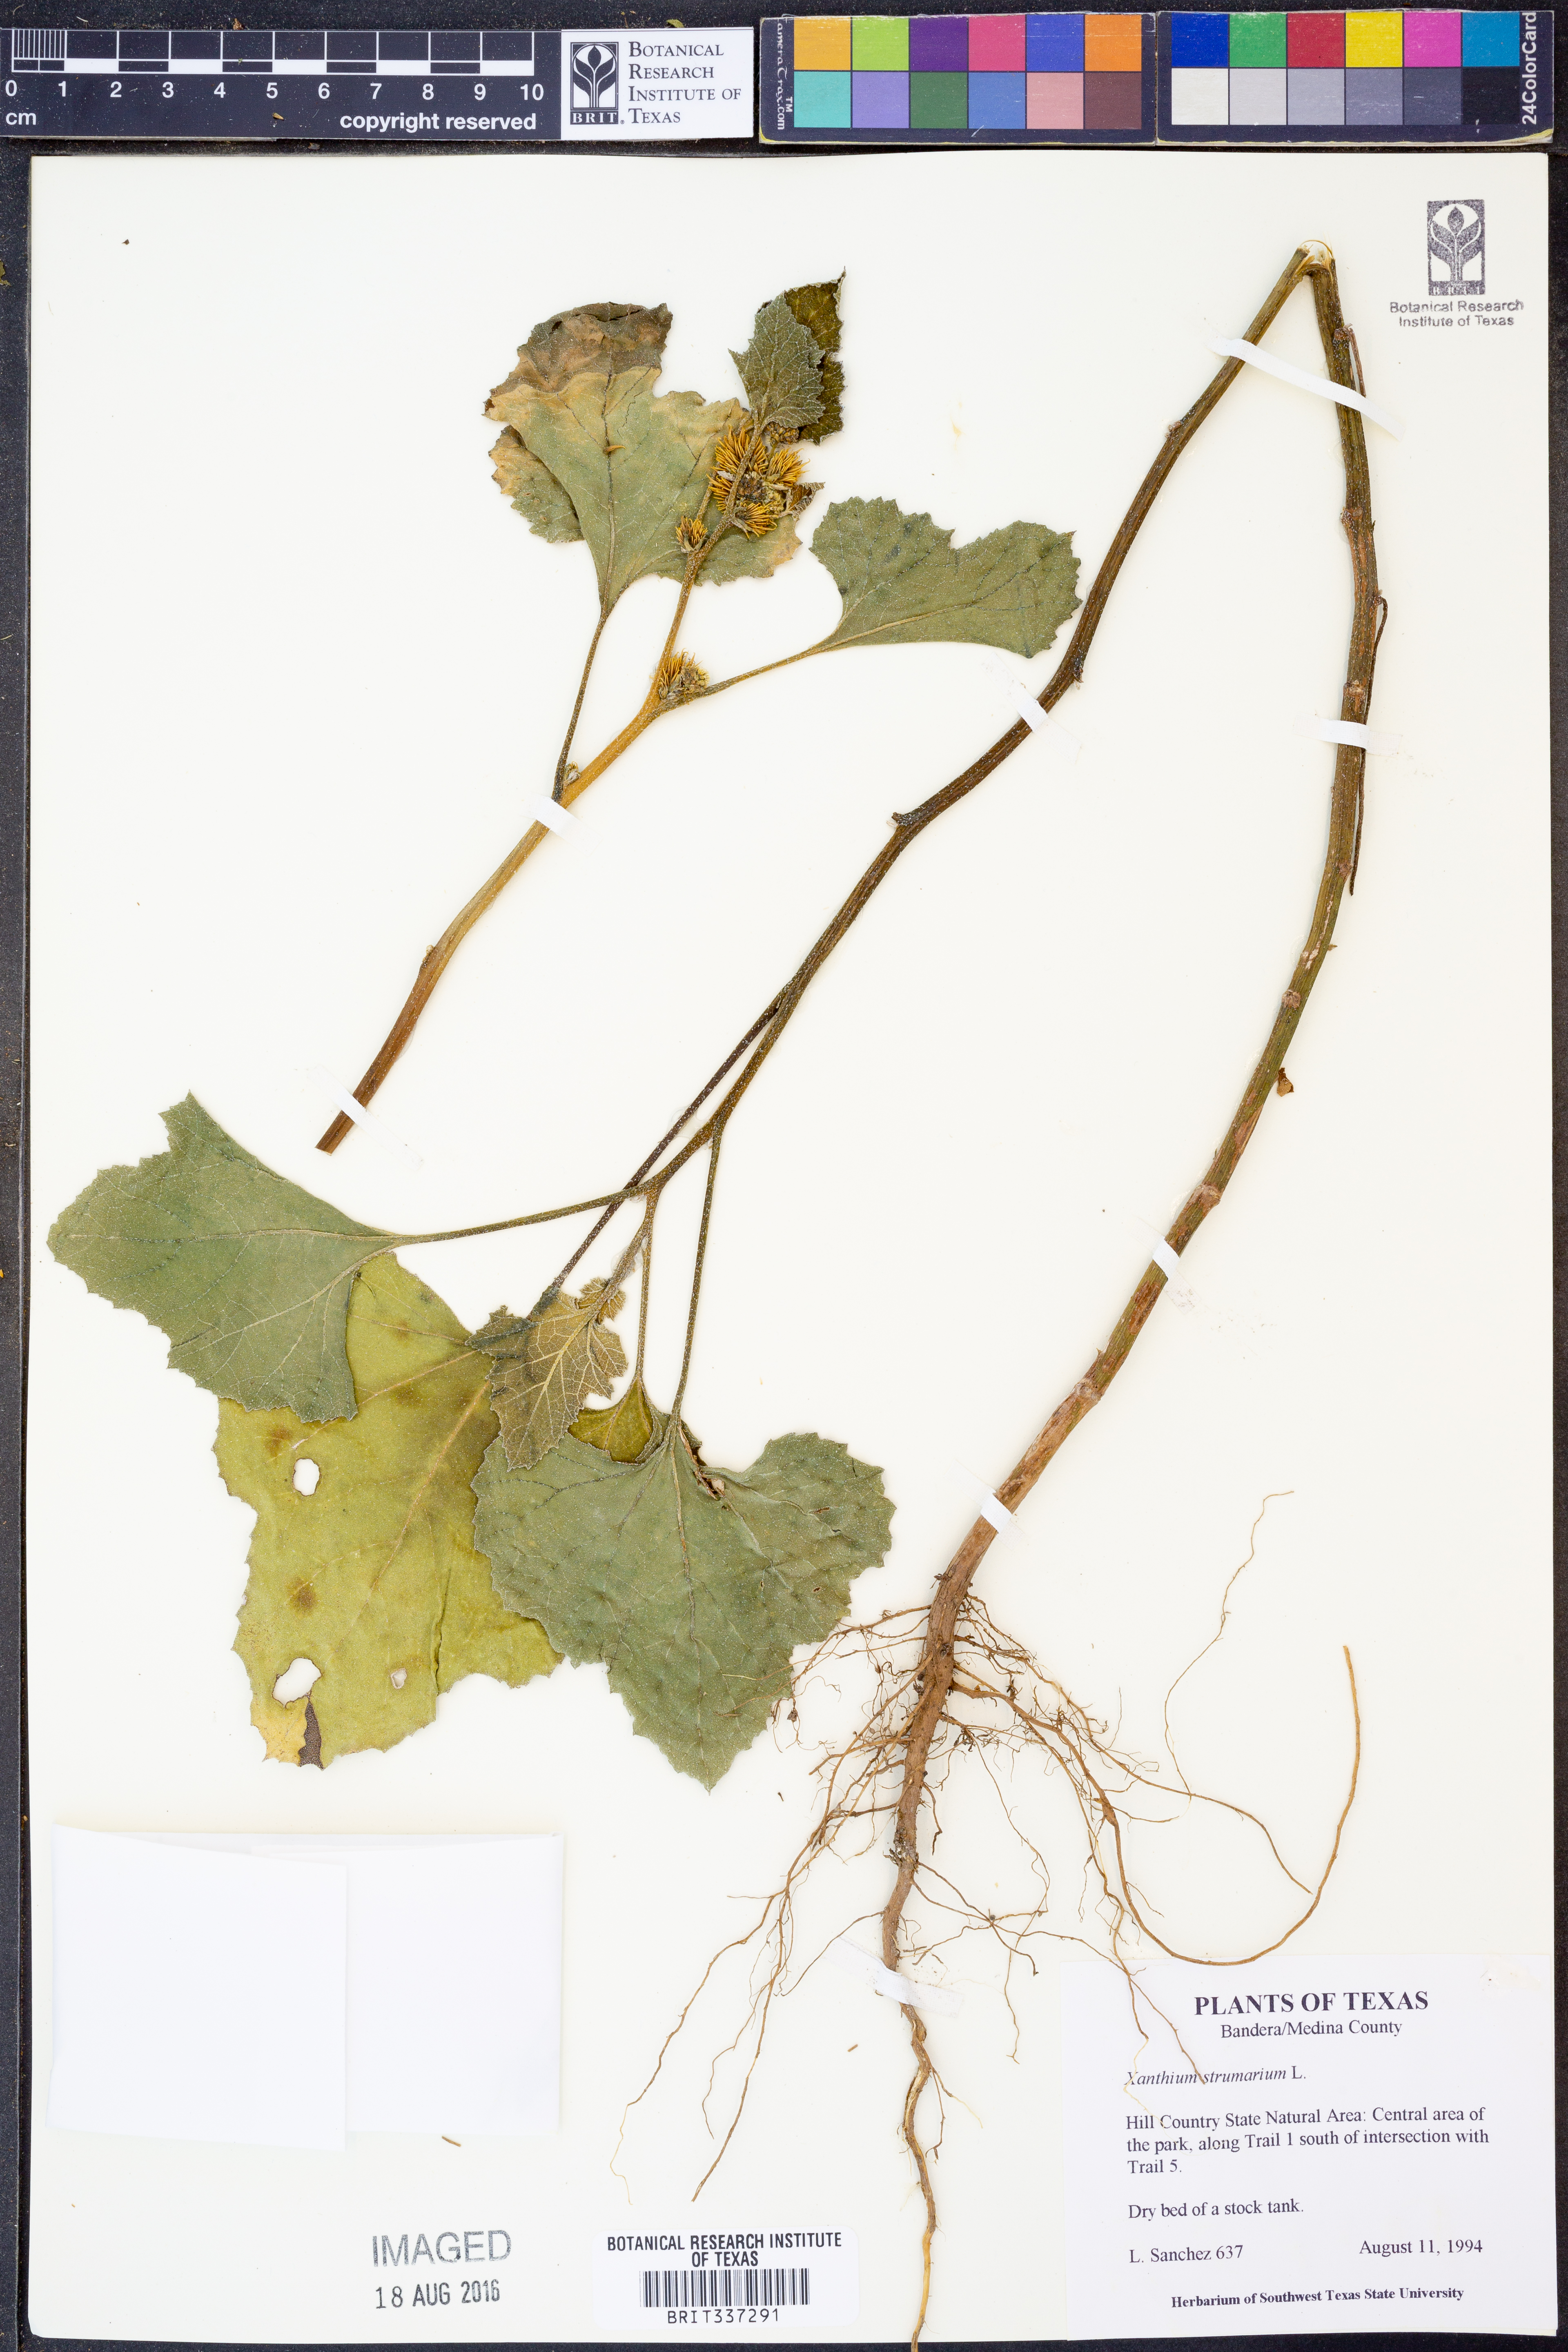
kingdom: Plantae
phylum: Tracheophyta
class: Magnoliopsida
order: Asterales
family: Asteraceae
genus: Xanthium
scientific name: Xanthium strumarium
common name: Rough cocklebur
